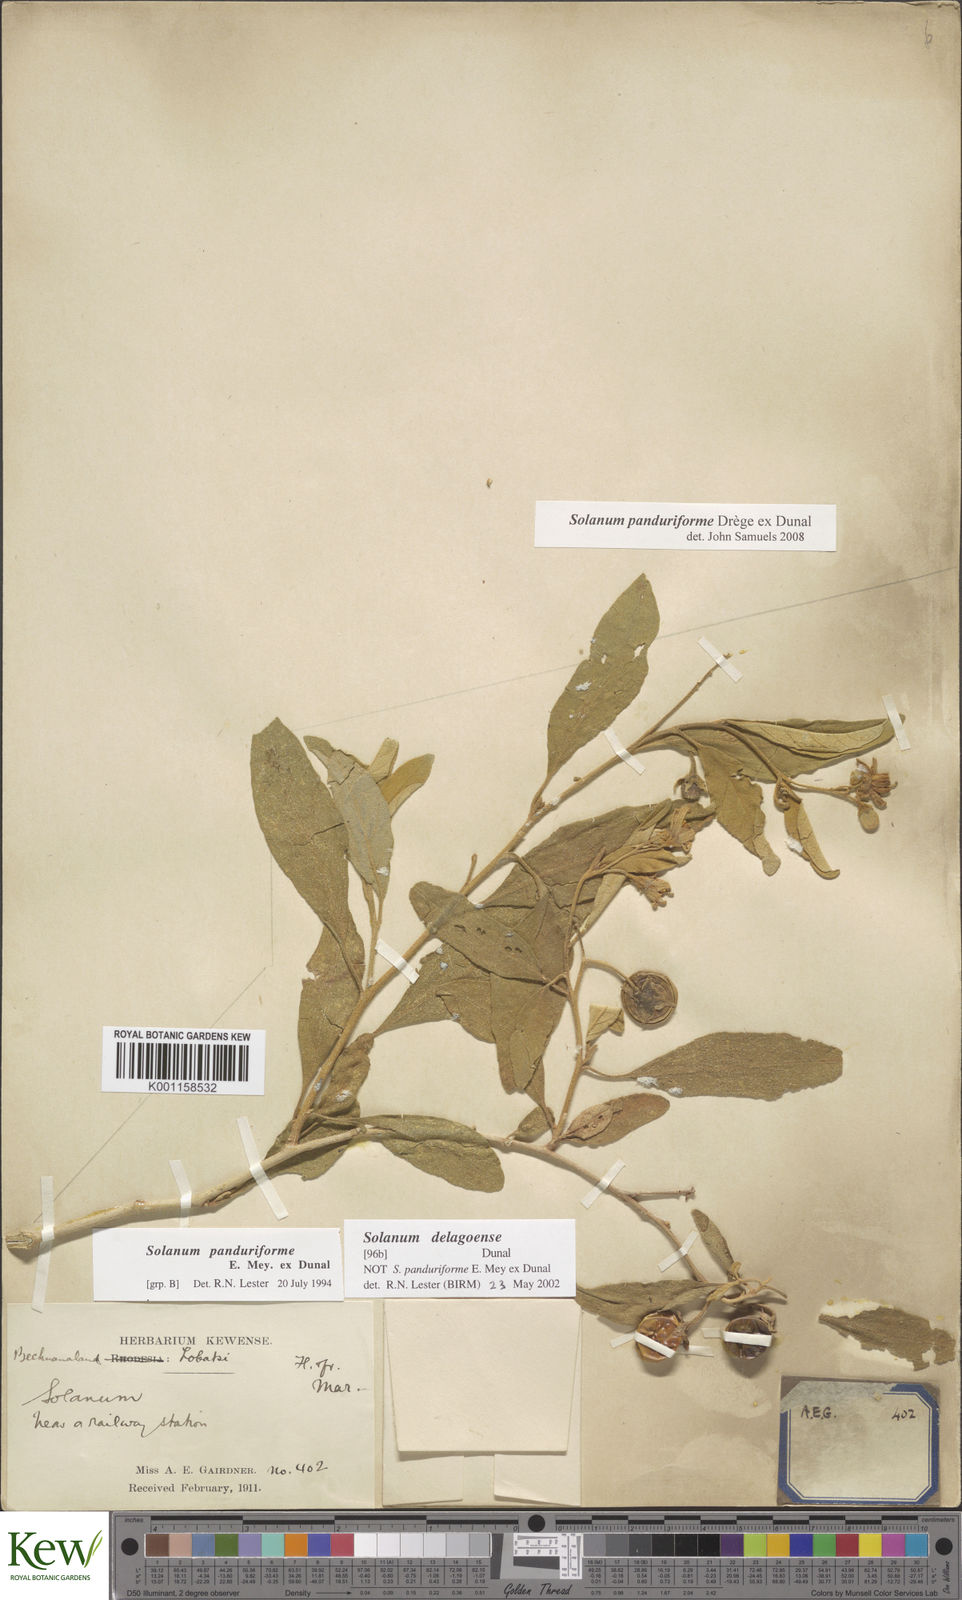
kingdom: Plantae
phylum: Tracheophyta
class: Magnoliopsida
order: Solanales
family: Solanaceae
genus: Solanum
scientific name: Solanum campylacanthum
